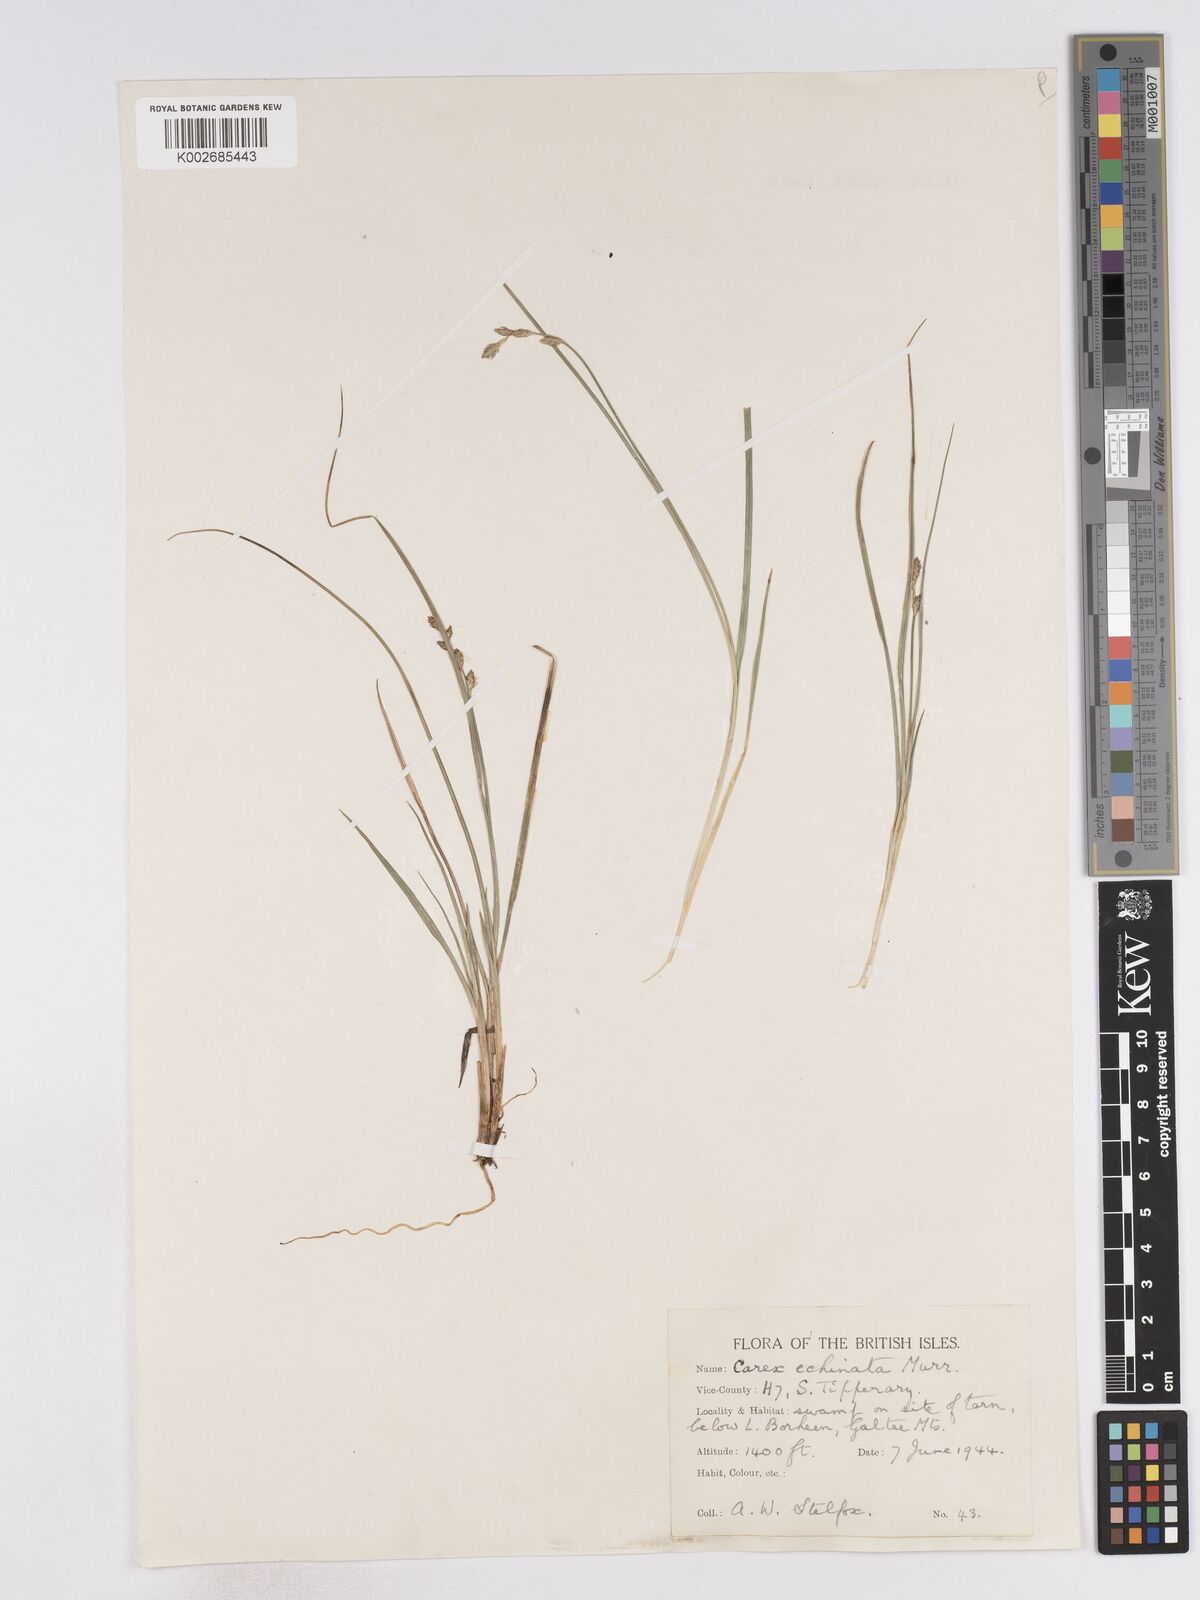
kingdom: Plantae
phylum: Tracheophyta
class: Liliopsida
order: Poales
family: Cyperaceae
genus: Carex
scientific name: Carex echinata
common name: Star sedge
